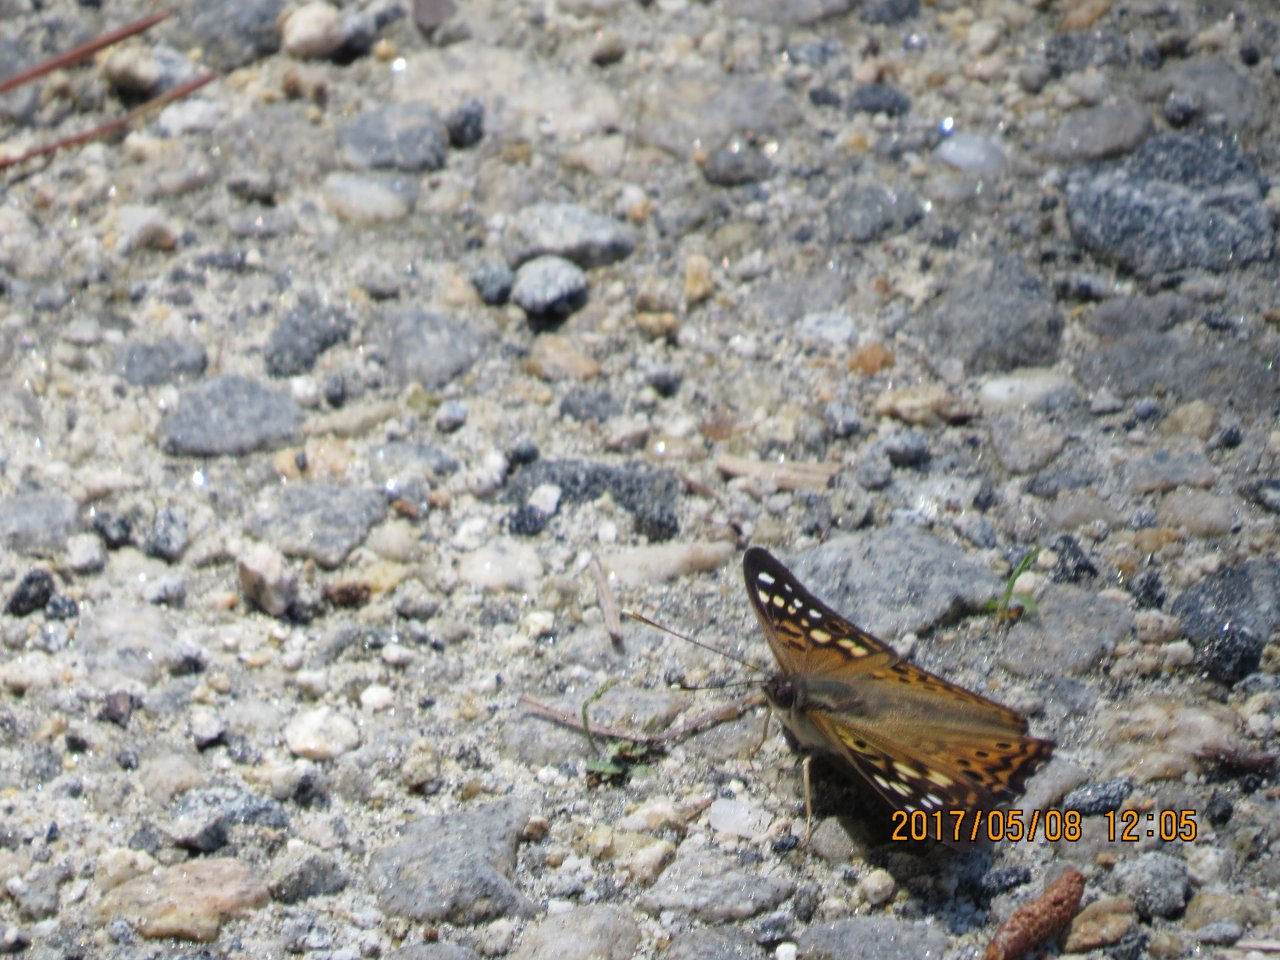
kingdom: Animalia
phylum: Arthropoda
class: Insecta
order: Lepidoptera
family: Nymphalidae
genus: Asterocampa
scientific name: Asterocampa celtis
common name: Hackberry Emperor
